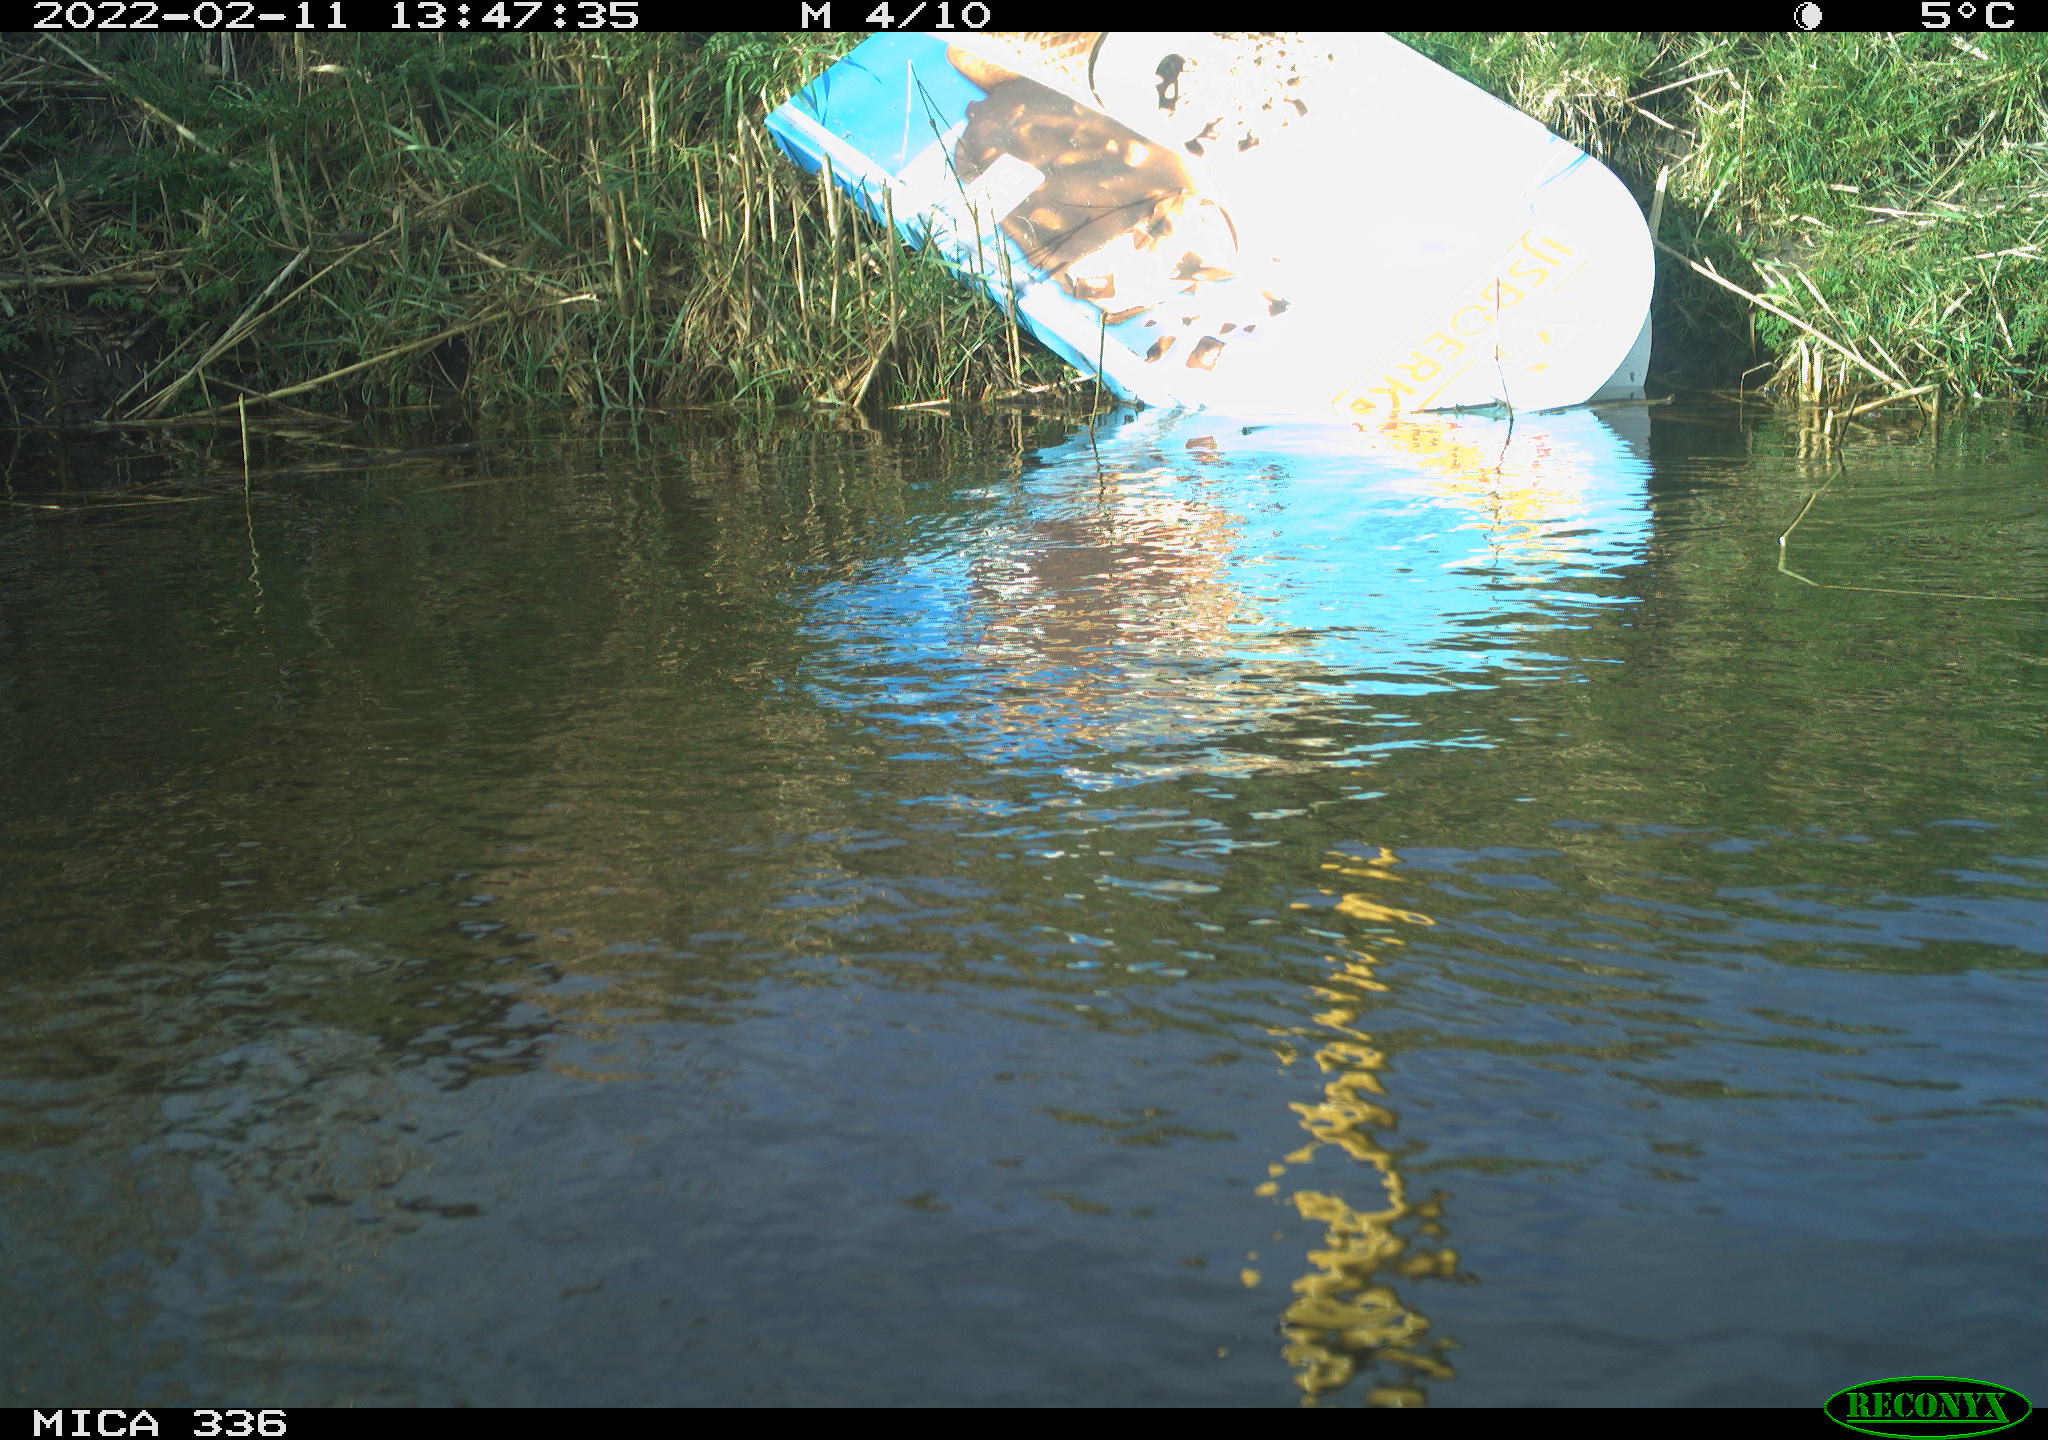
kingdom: Animalia
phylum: Chordata
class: Aves
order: Gruiformes
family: Rallidae
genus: Gallinula
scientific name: Gallinula chloropus
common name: Common moorhen
